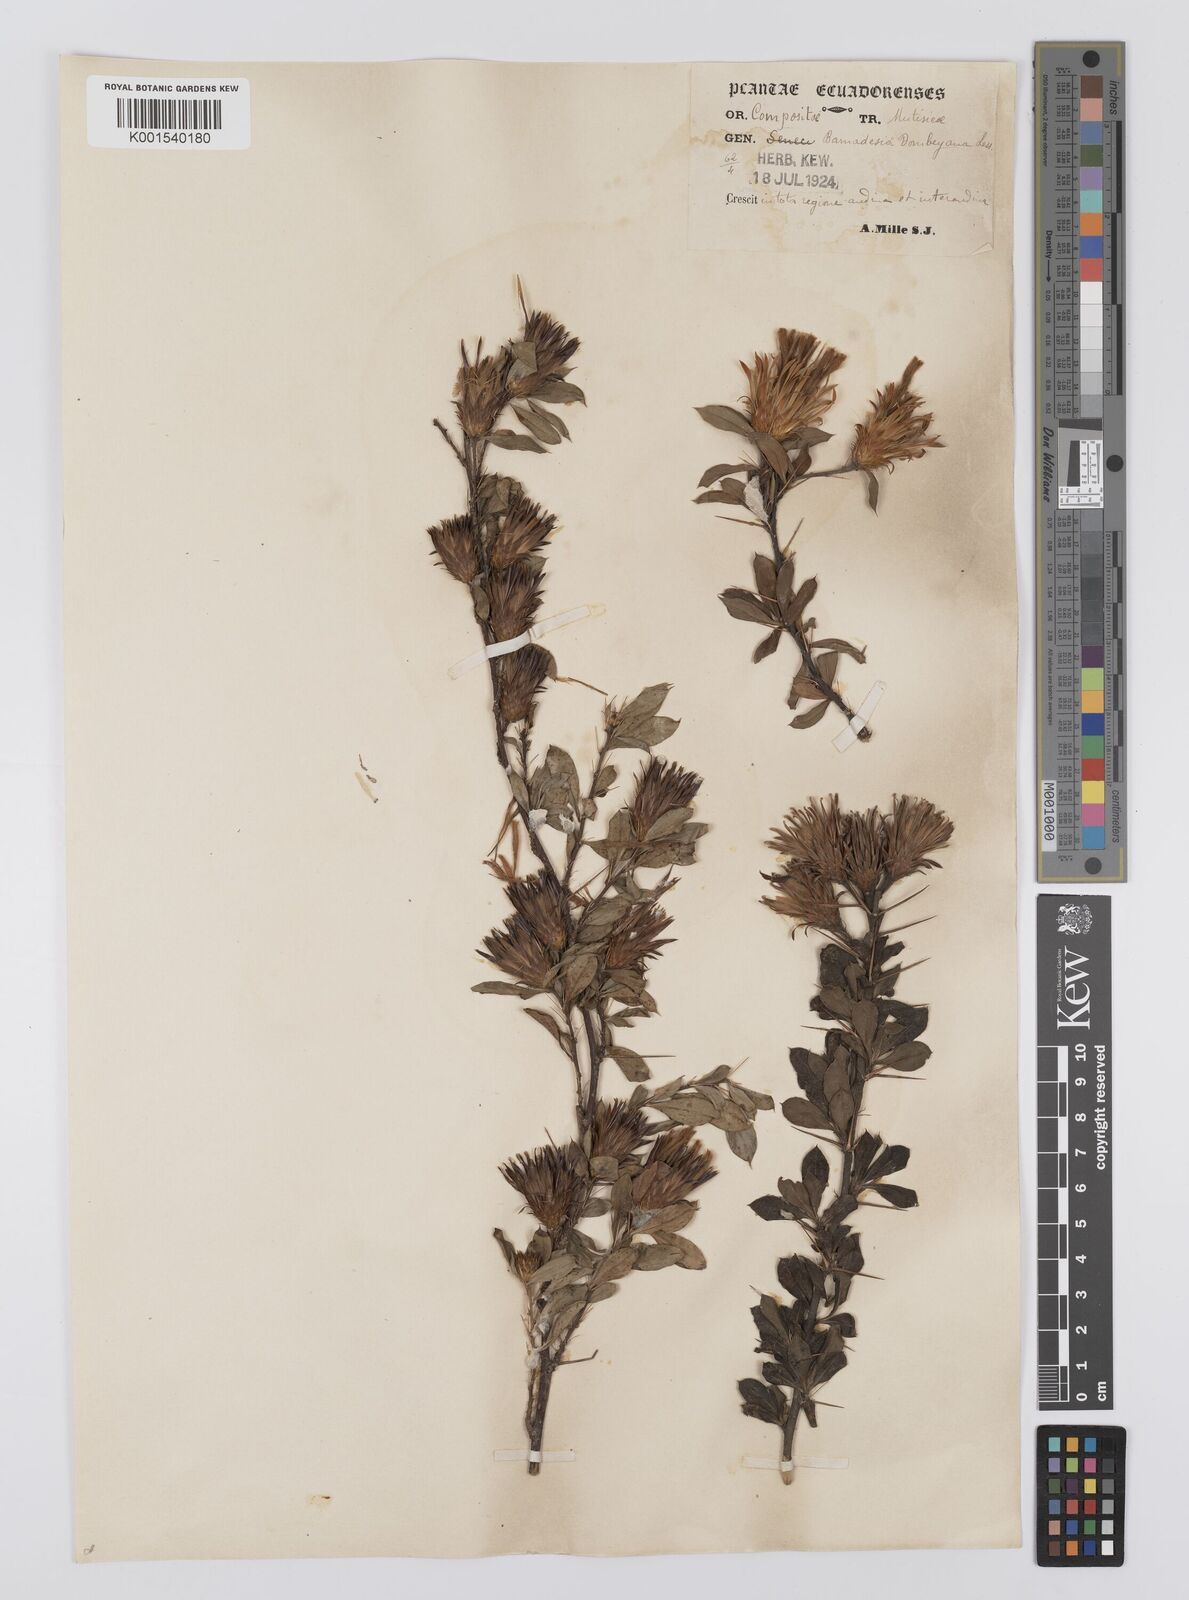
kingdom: Plantae
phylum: Tracheophyta
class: Magnoliopsida
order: Asterales
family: Asteraceae
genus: Barnadesia
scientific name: Barnadesia
